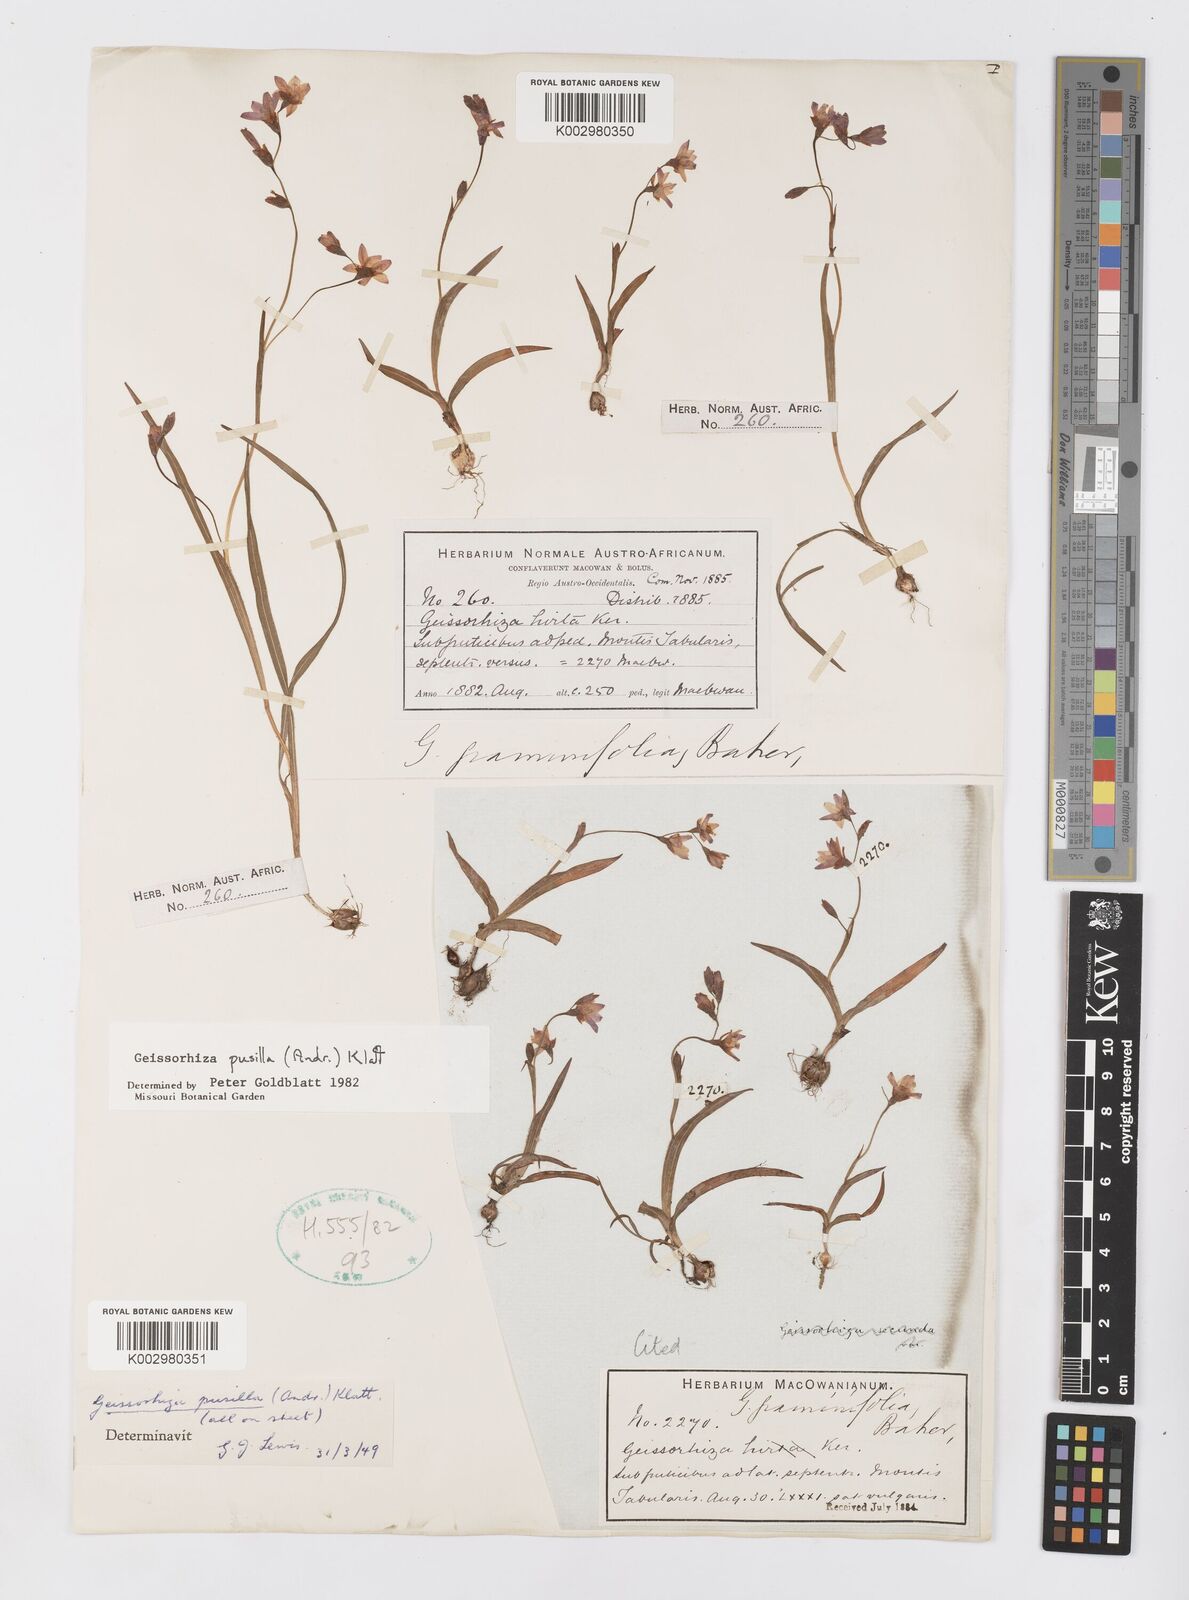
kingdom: Plantae
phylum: Tracheophyta
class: Liliopsida
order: Asparagales
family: Iridaceae
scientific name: Iridaceae
